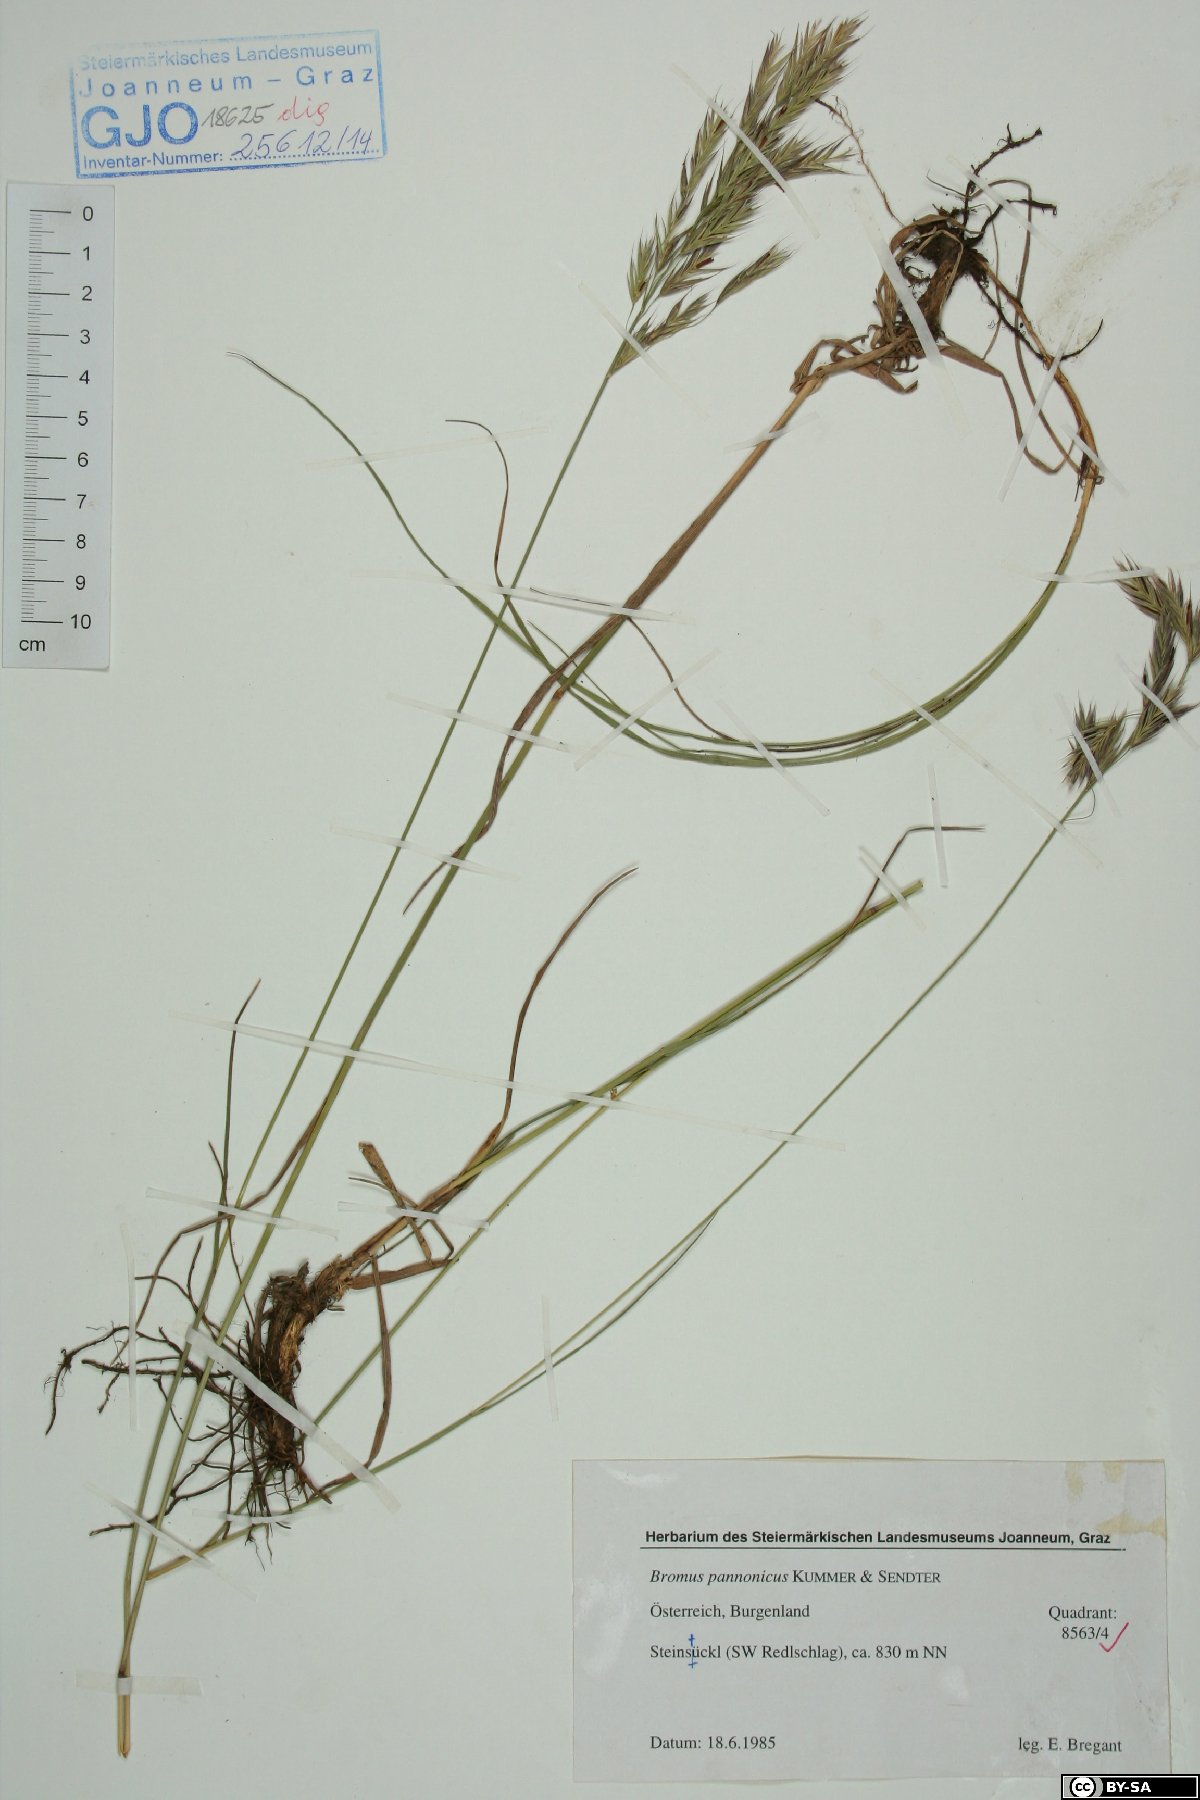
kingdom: Plantae
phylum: Tracheophyta
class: Liliopsida
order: Poales
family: Poaceae
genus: Bromus
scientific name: Bromus pannonicus
